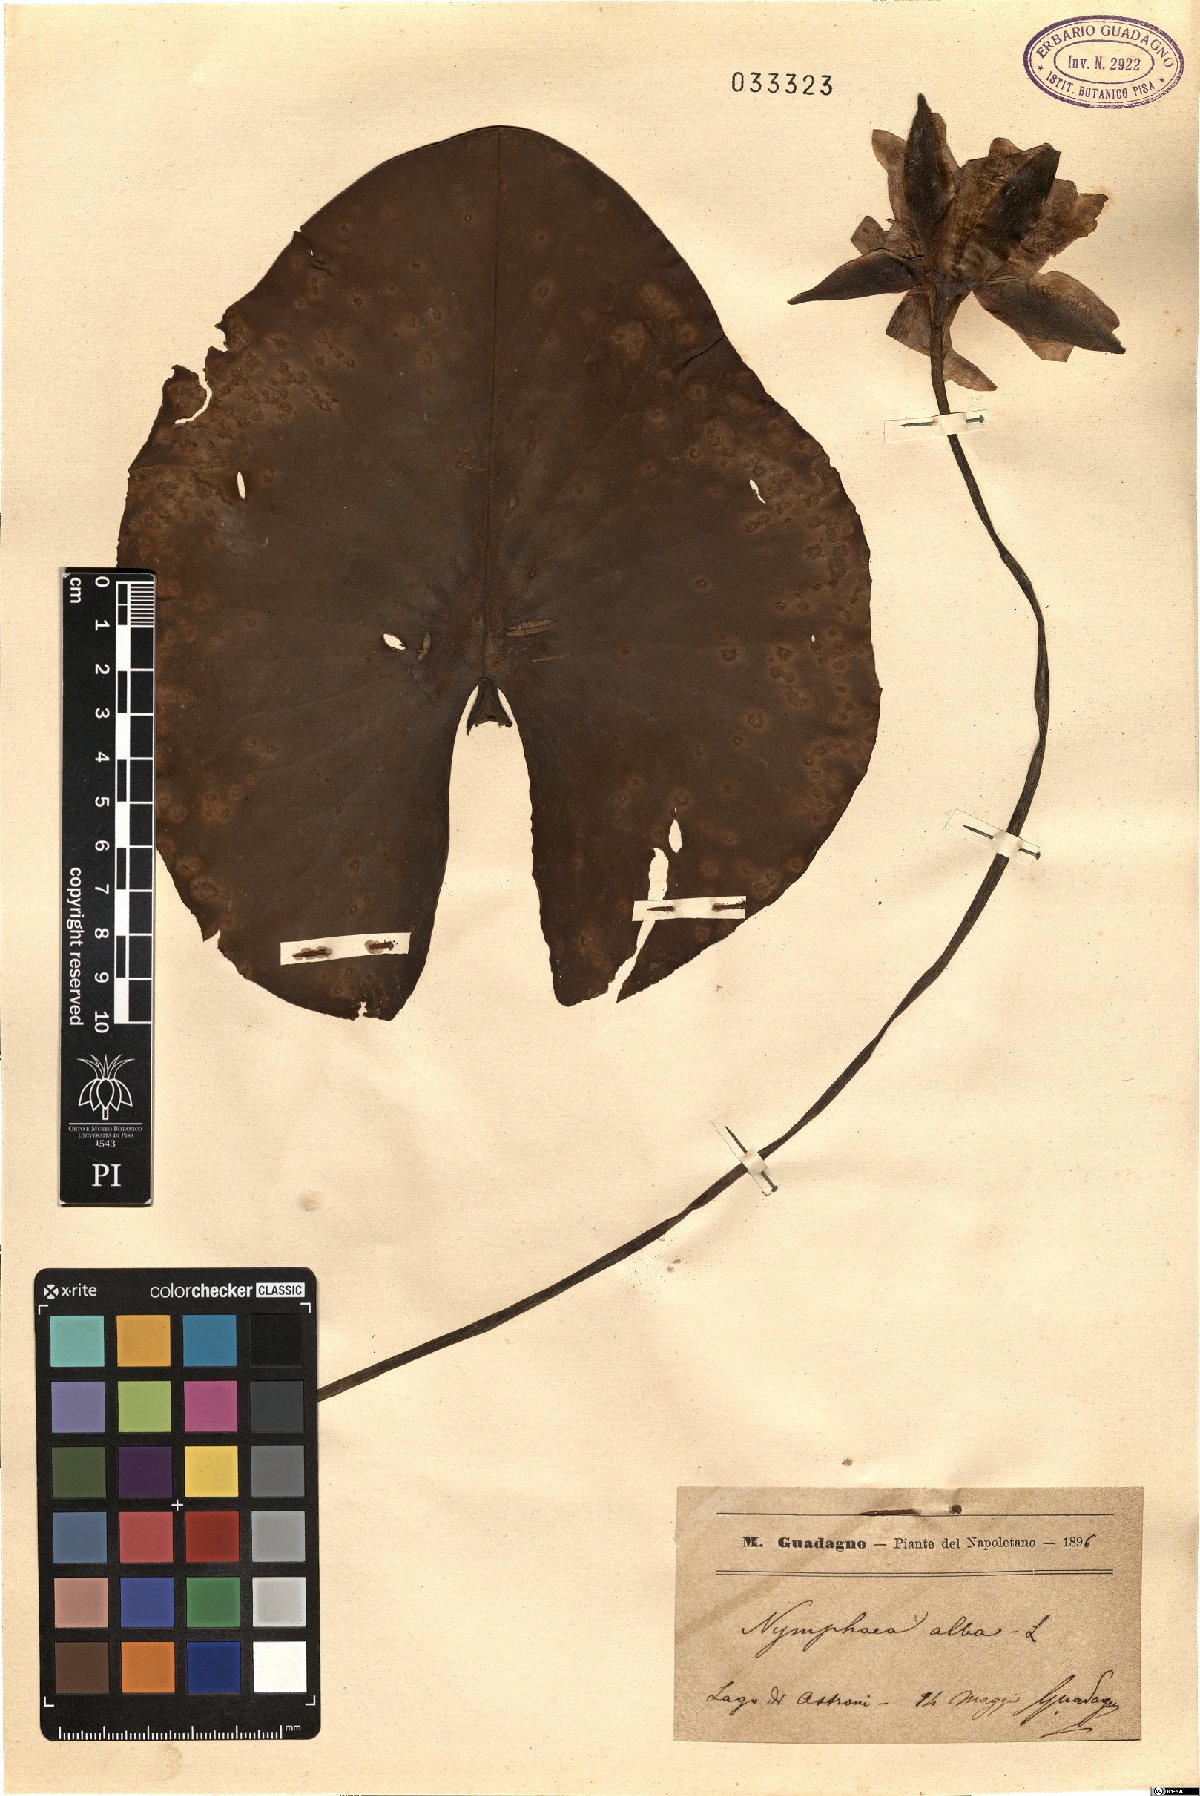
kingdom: Plantae
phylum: Tracheophyta
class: Magnoliopsida
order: Nymphaeales
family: Nymphaeaceae
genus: Nymphaea
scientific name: Nymphaea alba
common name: White water-lily
